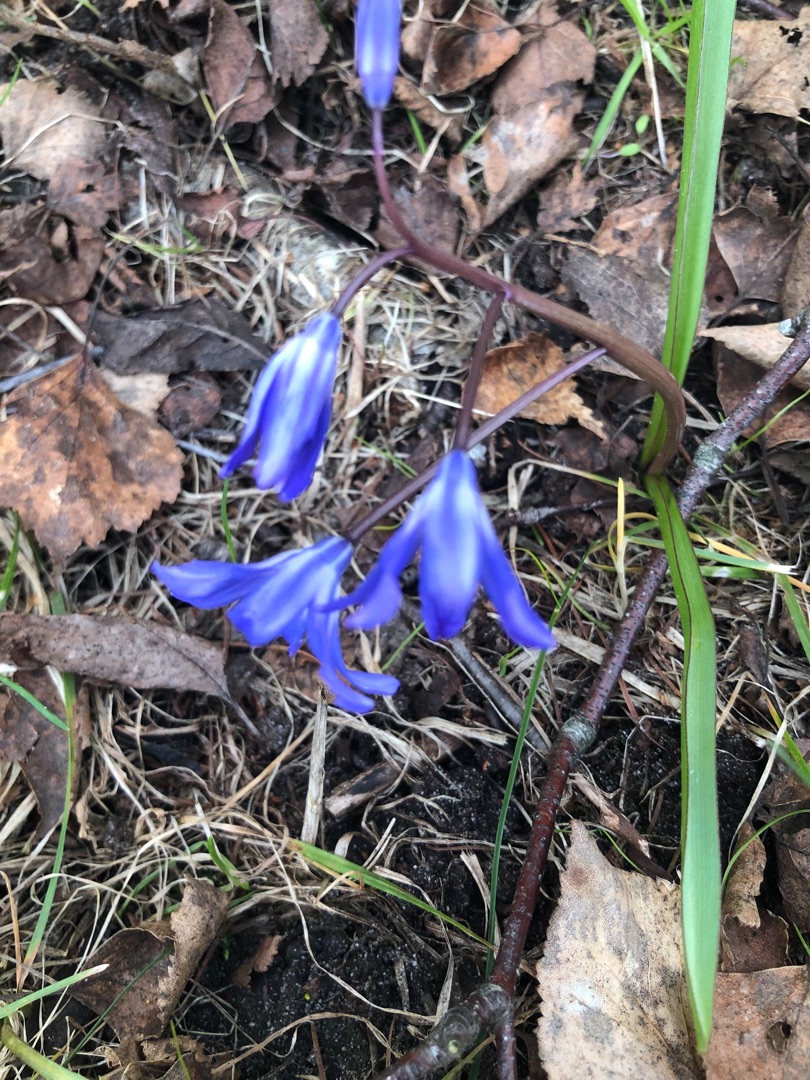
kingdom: Plantae
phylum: Tracheophyta
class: Liliopsida
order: Asparagales
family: Asparagaceae
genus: Scilla
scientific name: Scilla forbesii
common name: Almindelig snepryd
